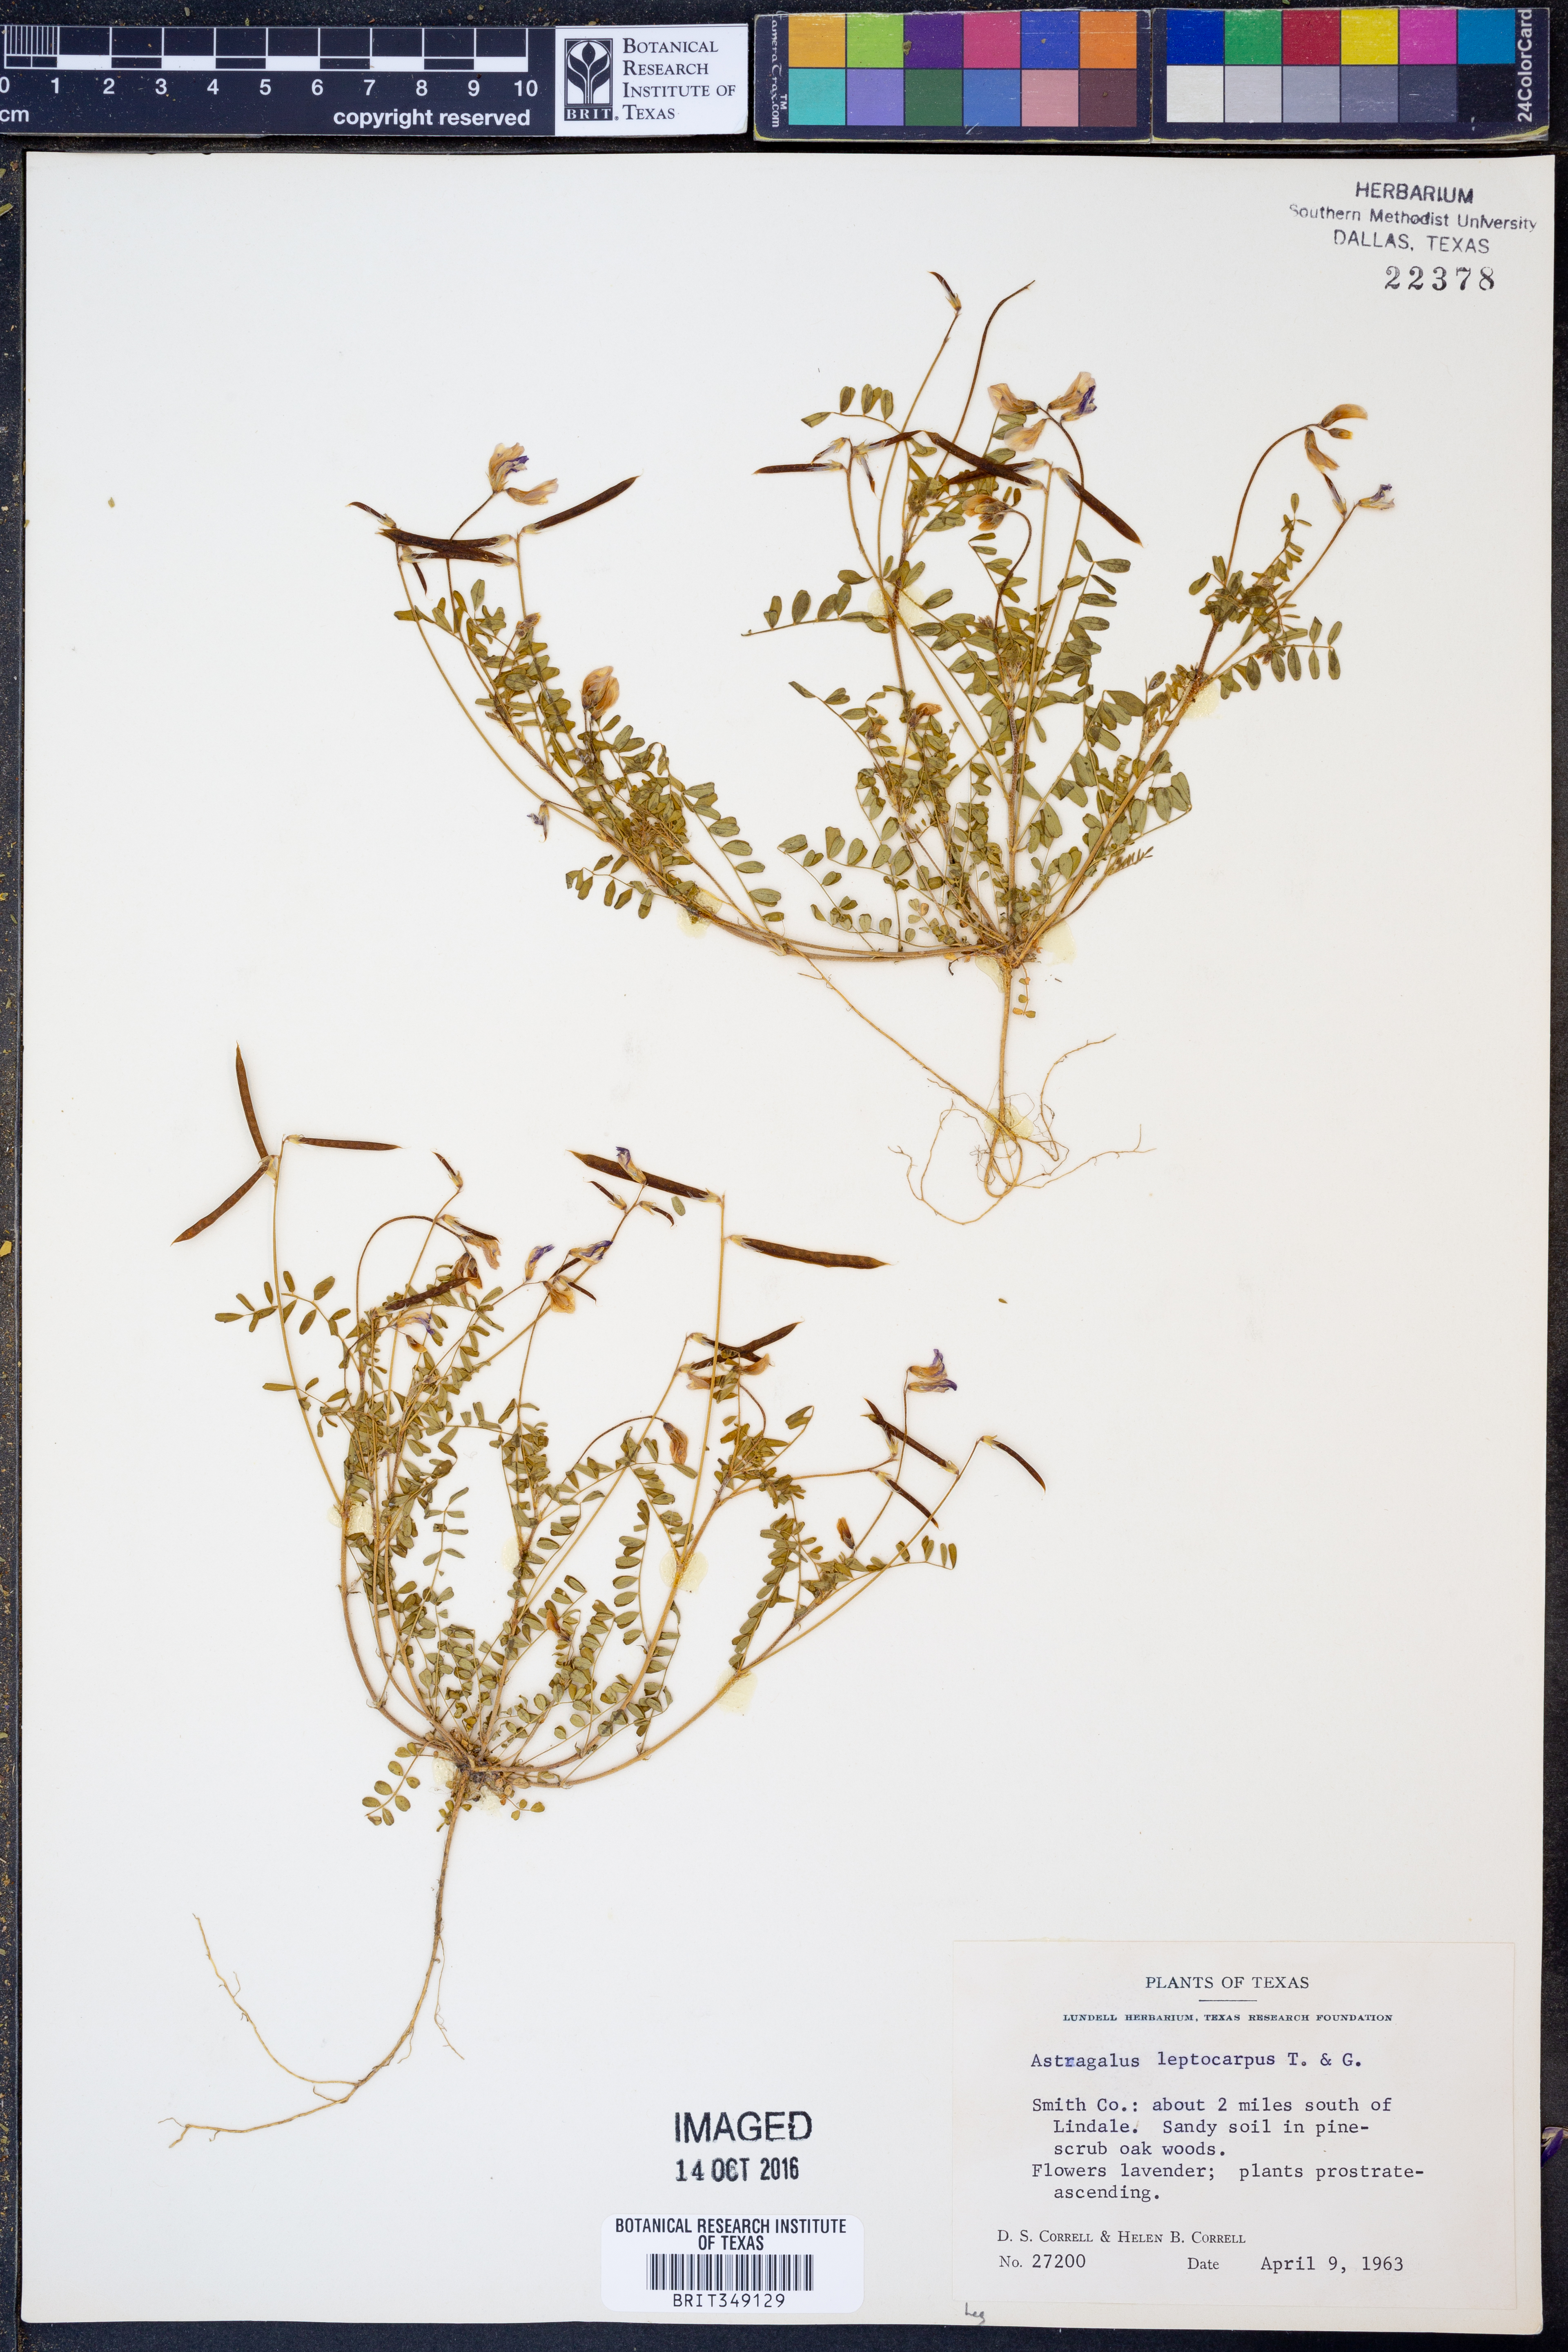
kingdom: Plantae
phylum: Tracheophyta
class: Magnoliopsida
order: Fabales
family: Fabaceae
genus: Astragalus
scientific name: Astragalus leptocarpus
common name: Bodkin milk-vetch
